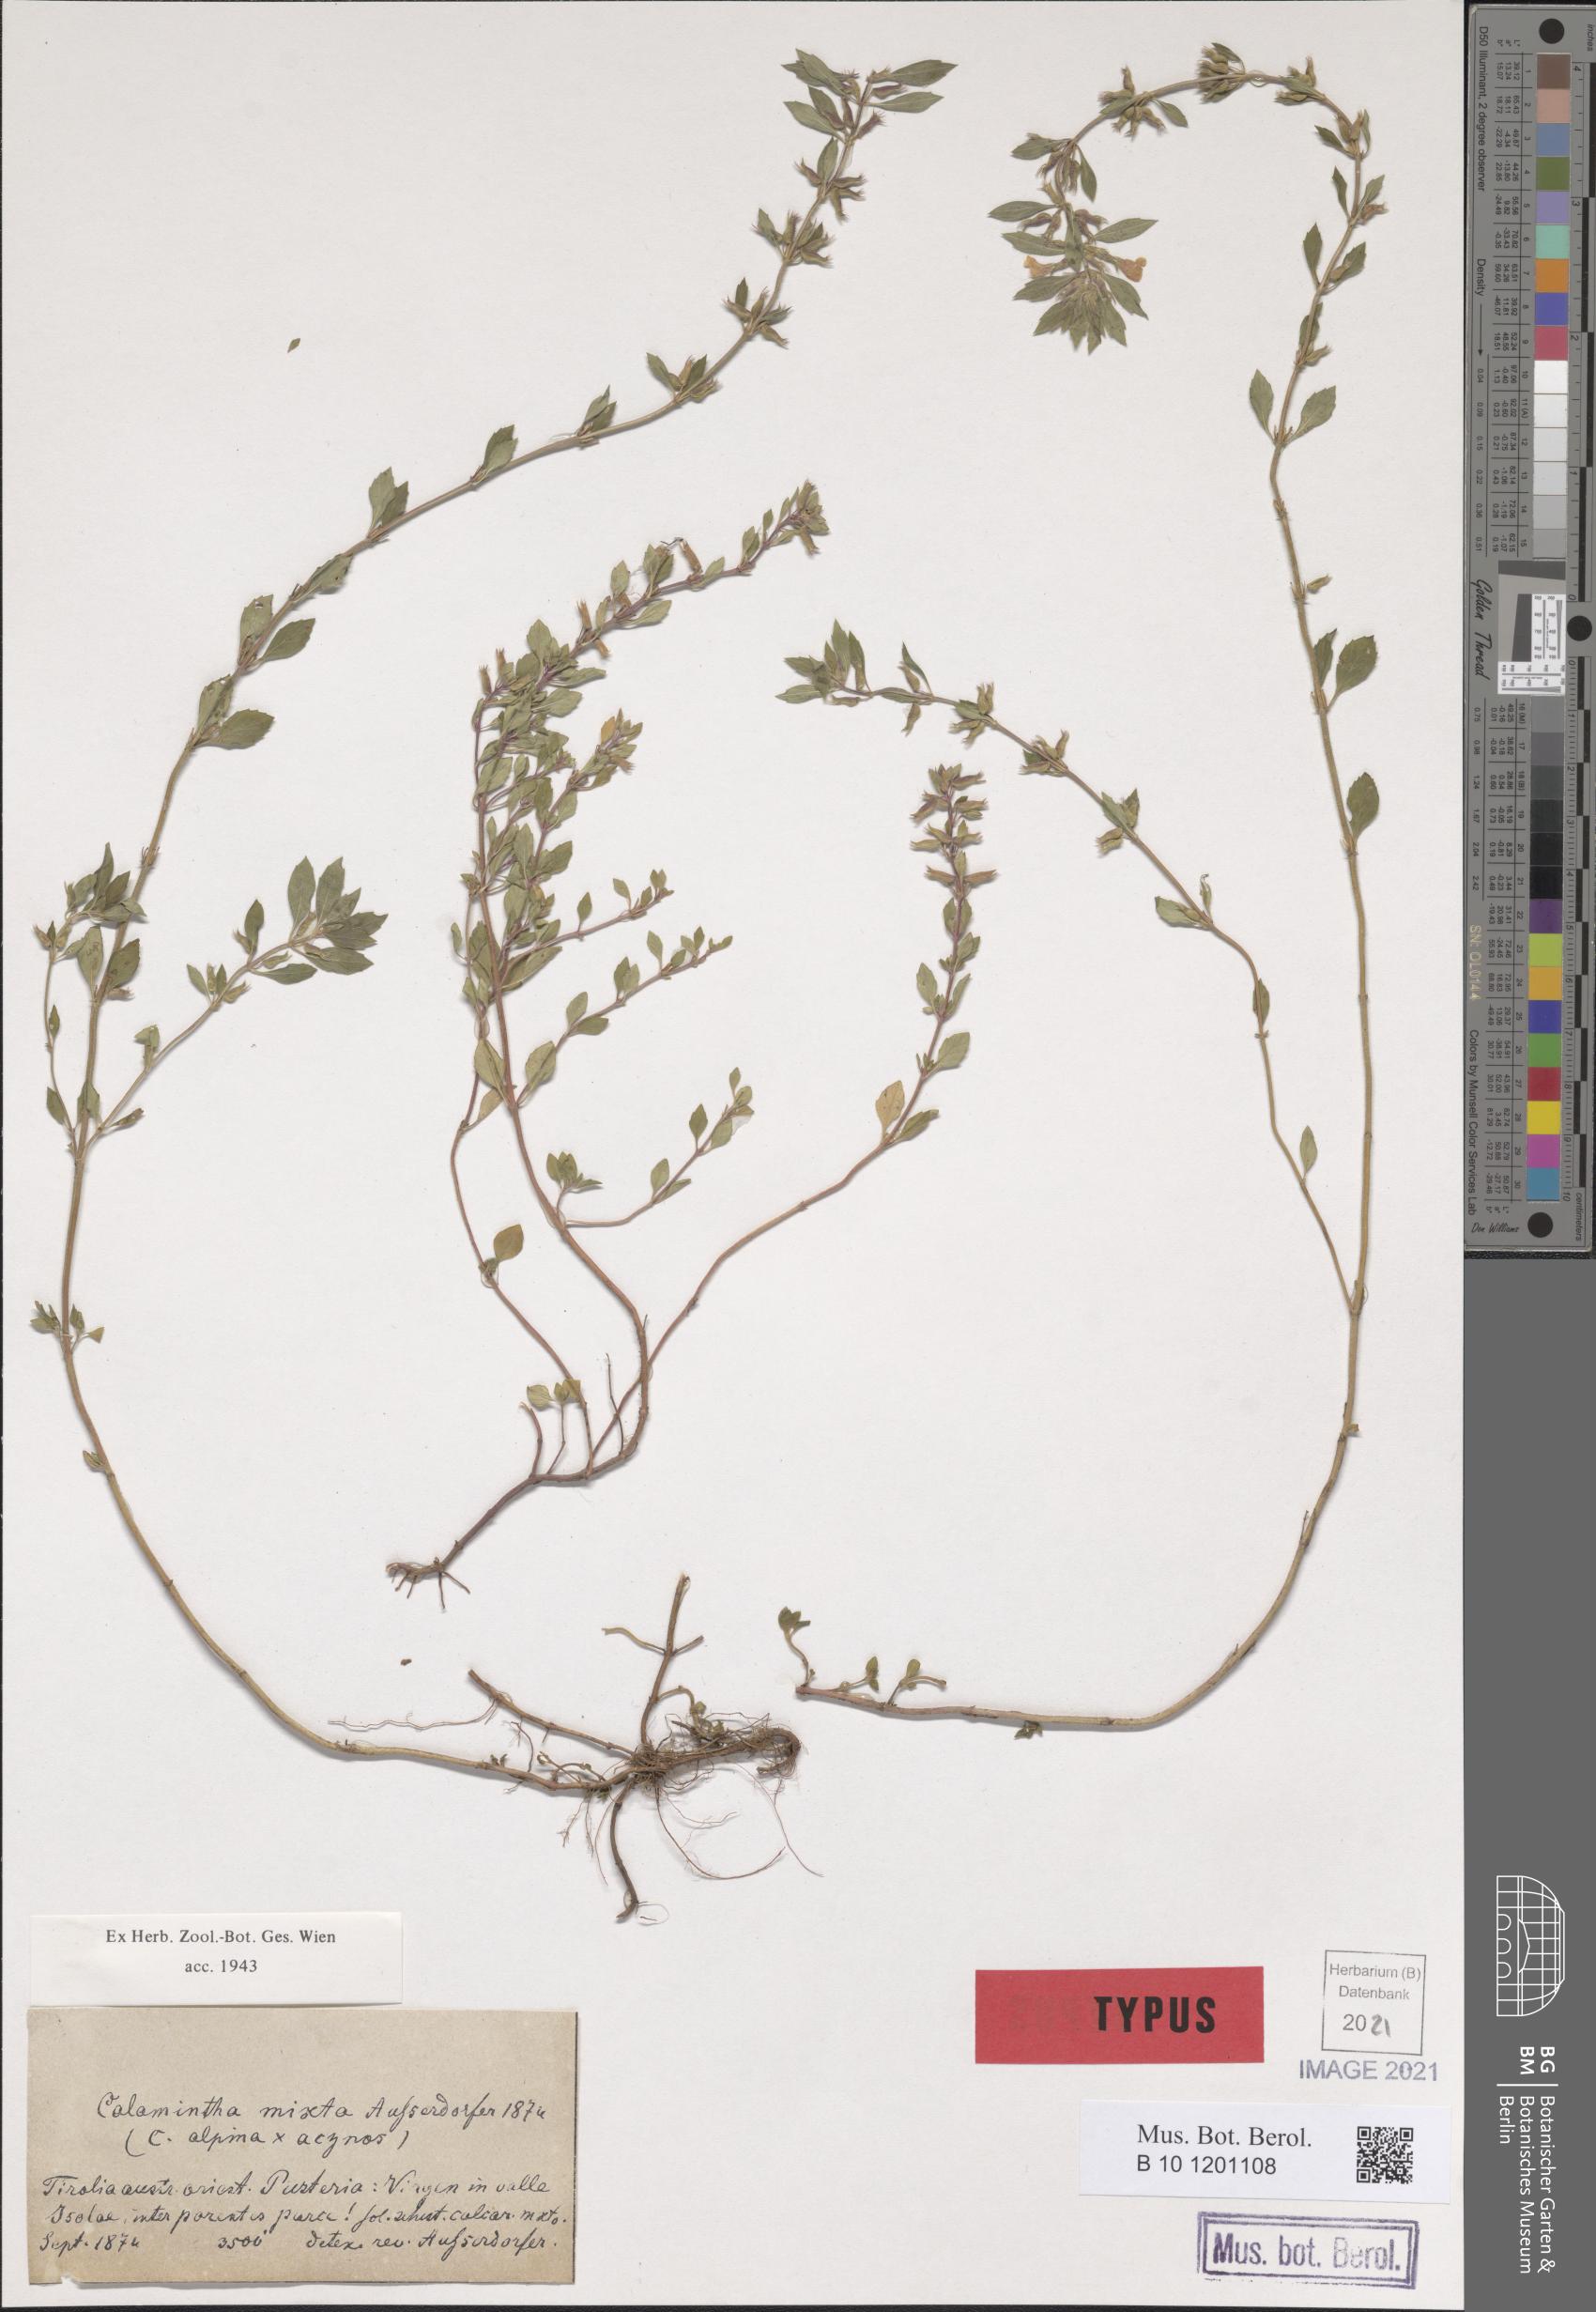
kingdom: Plantae
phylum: Tracheophyta
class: Magnoliopsida
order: Lamiales
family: Lamiaceae
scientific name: Lamiaceae
